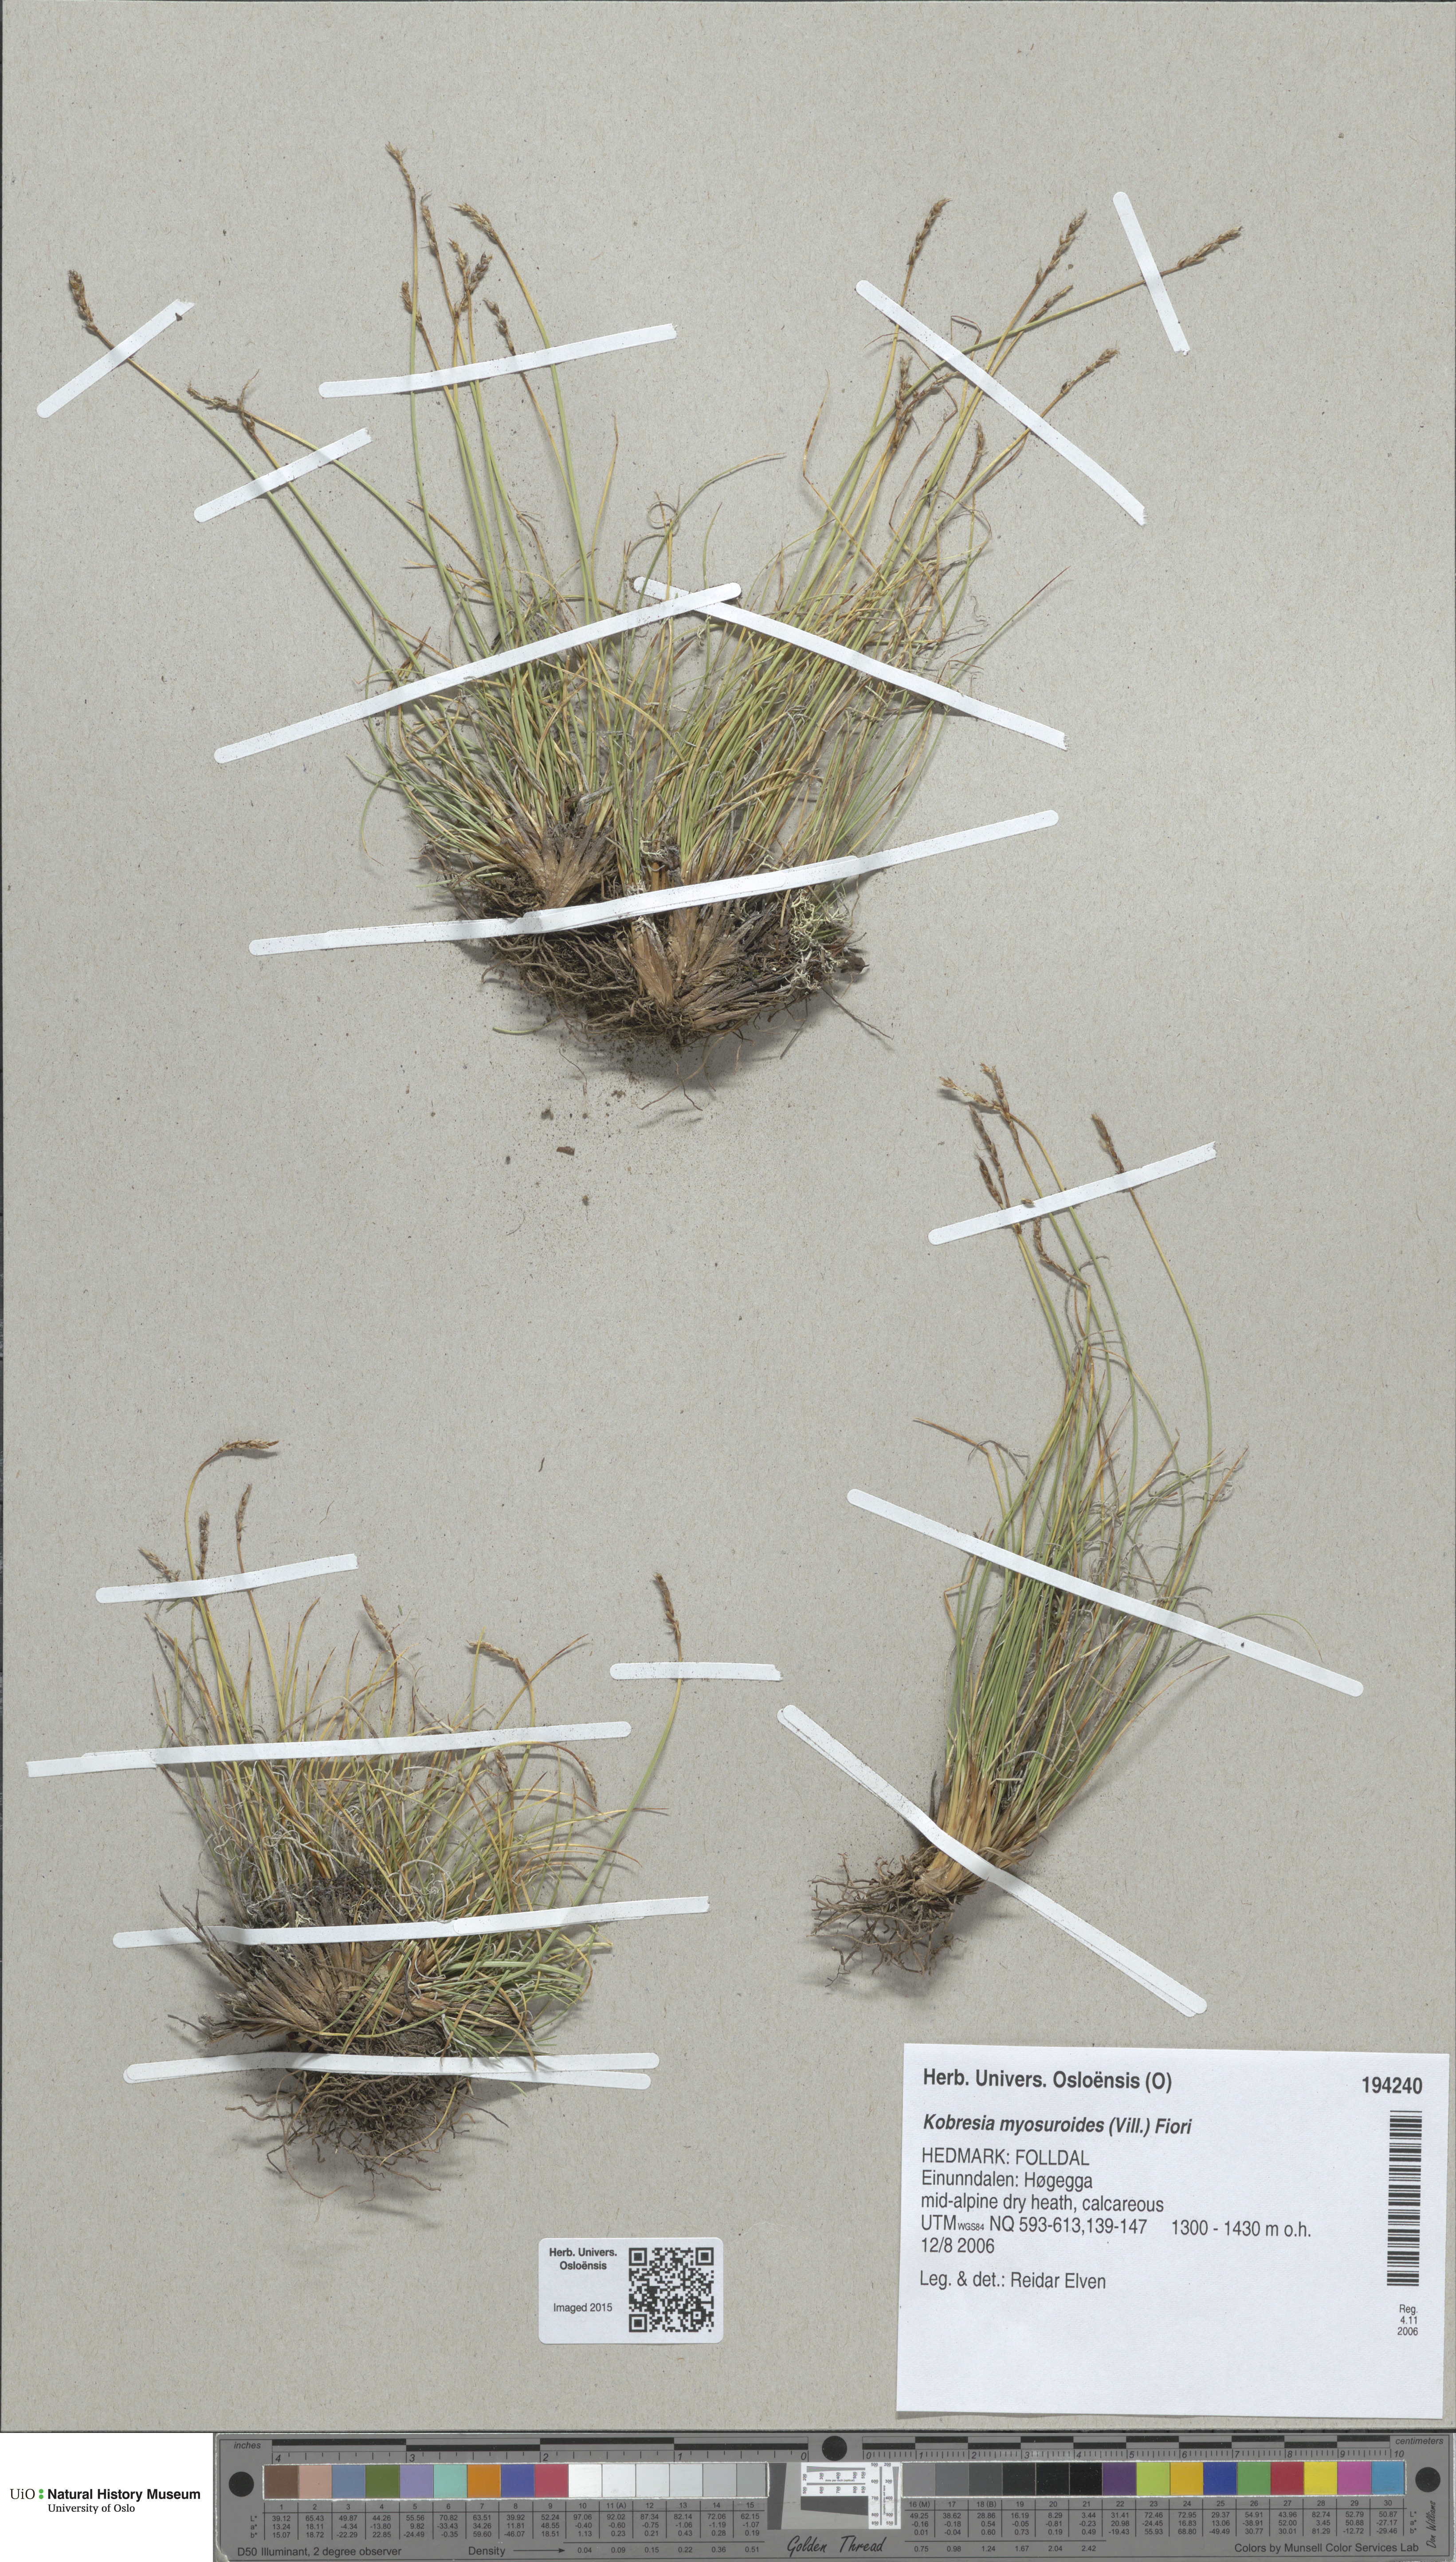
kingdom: Plantae
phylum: Tracheophyta
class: Liliopsida
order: Poales
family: Cyperaceae
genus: Carex
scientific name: Carex myosuroides
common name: Bellard's bog sedge
